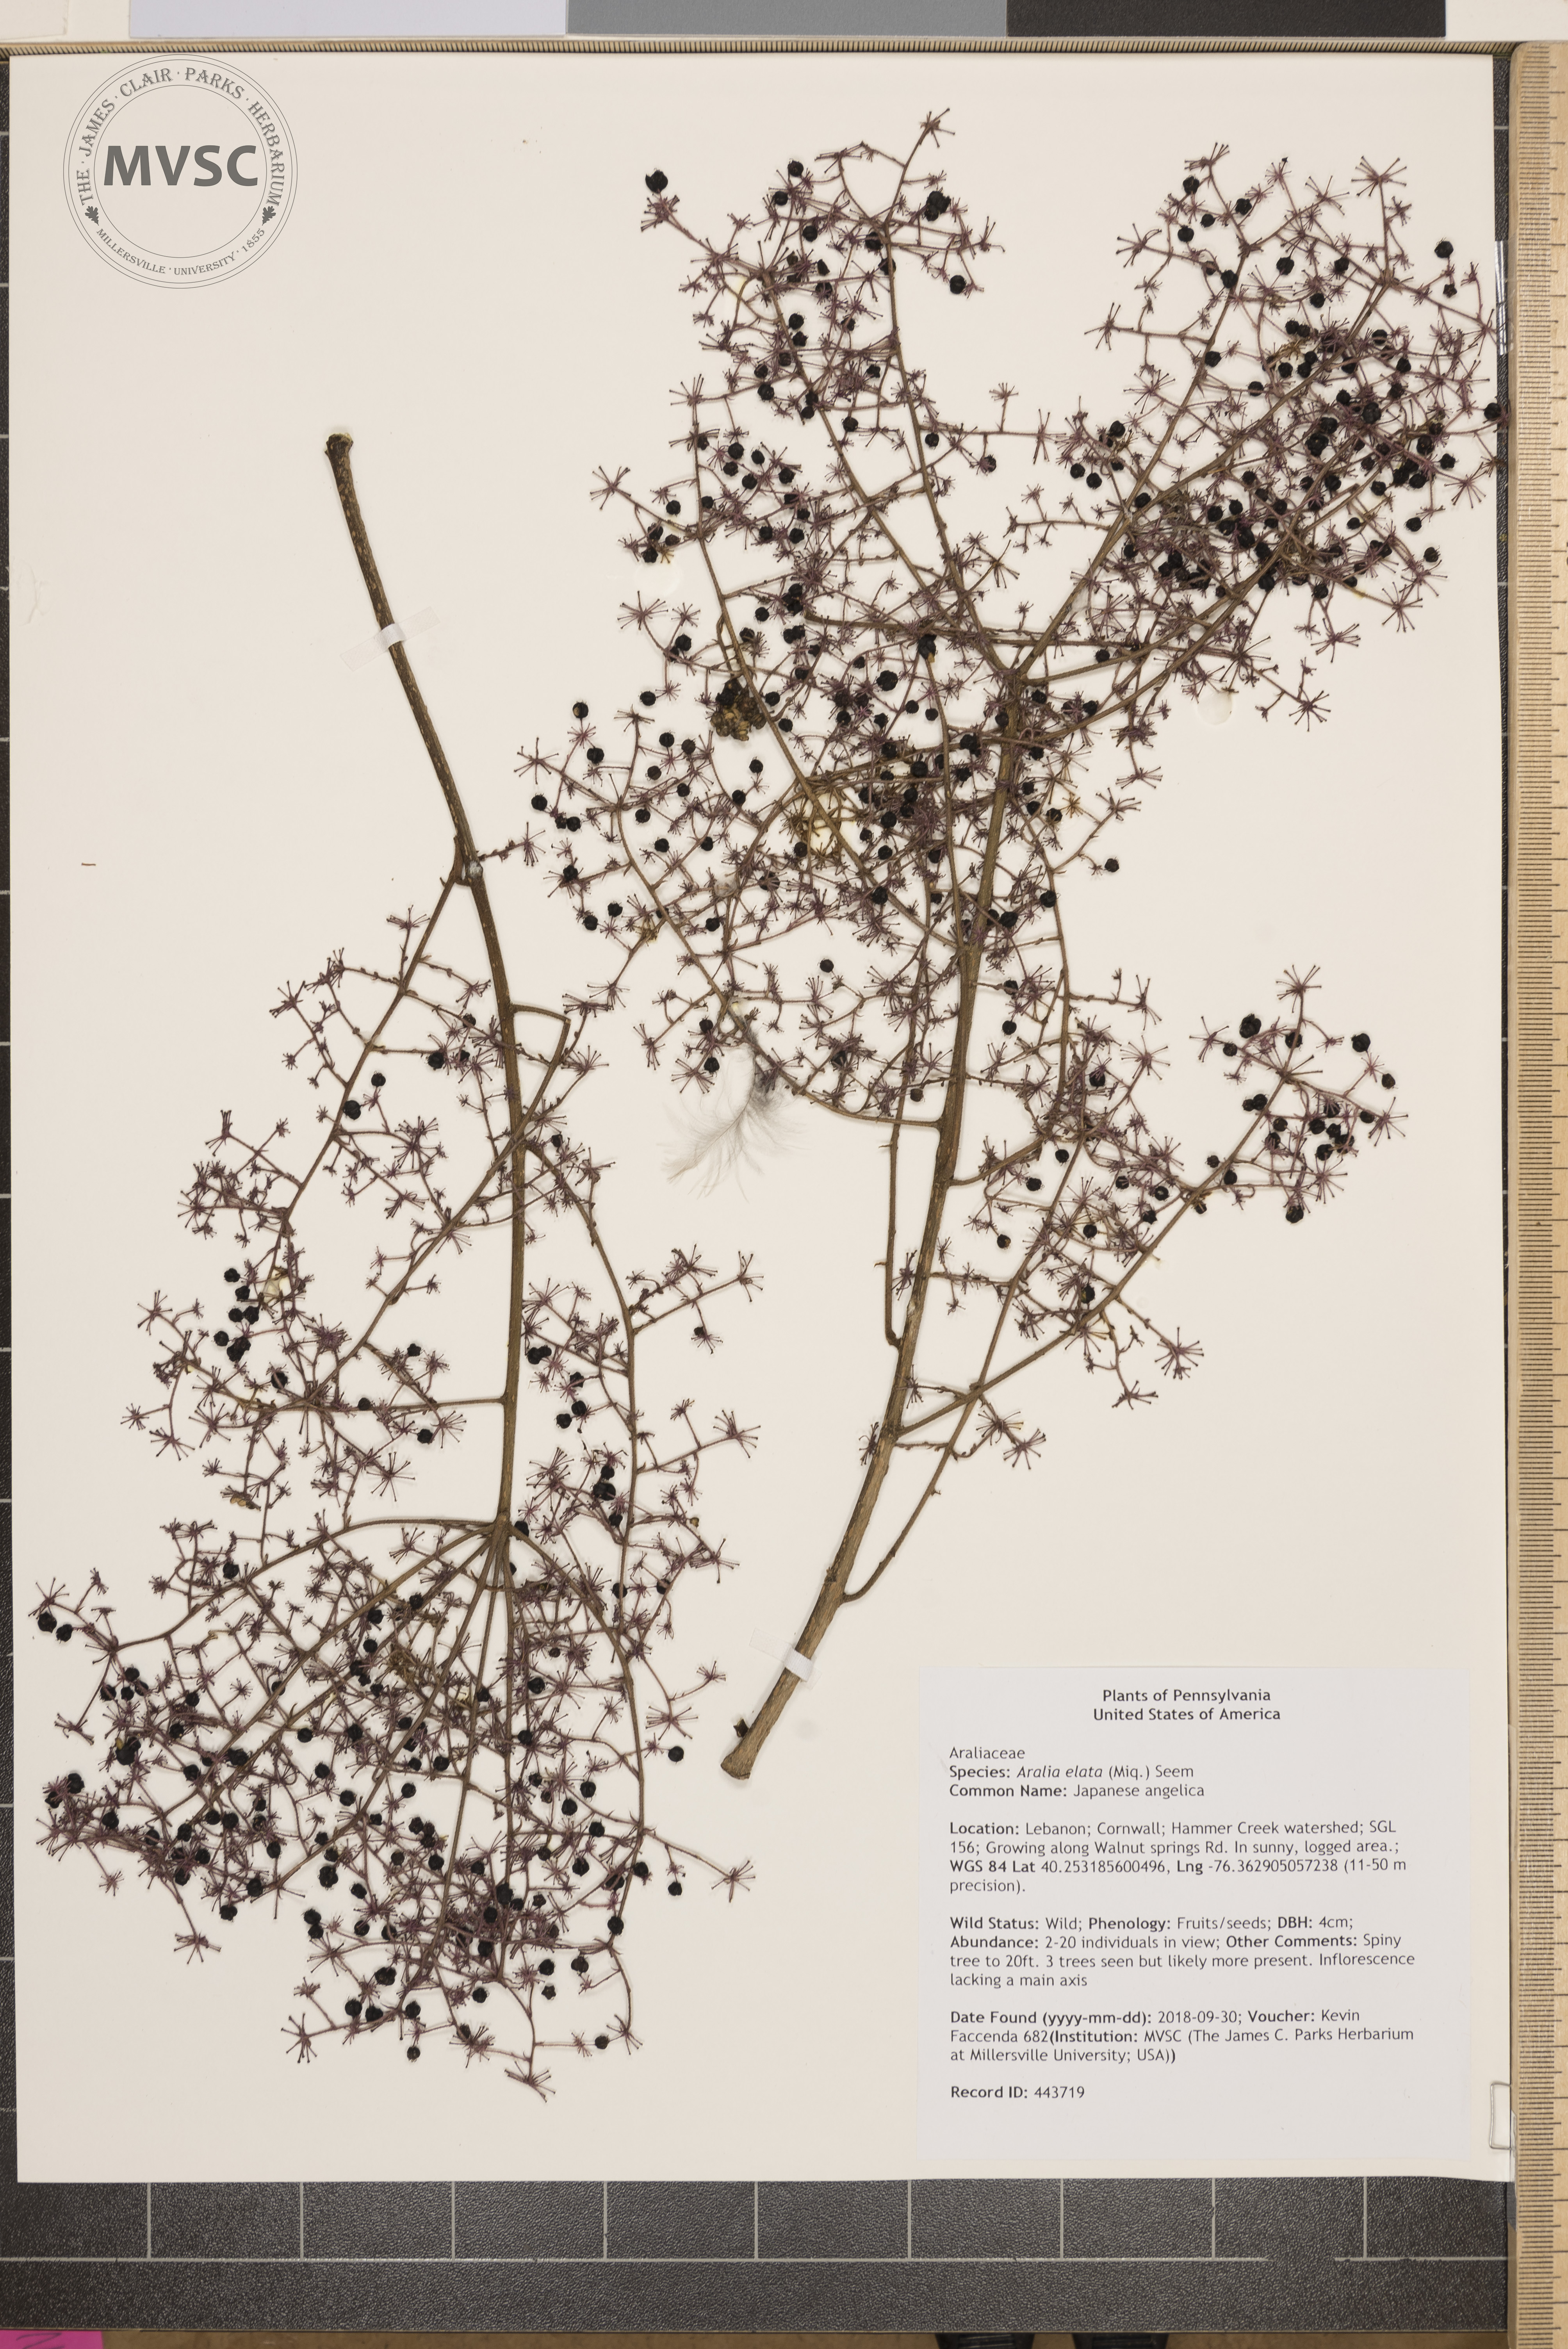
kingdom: Plantae
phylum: Tracheophyta
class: Magnoliopsida
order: Apiales
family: Araliaceae
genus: Aralia
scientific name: Aralia elata
